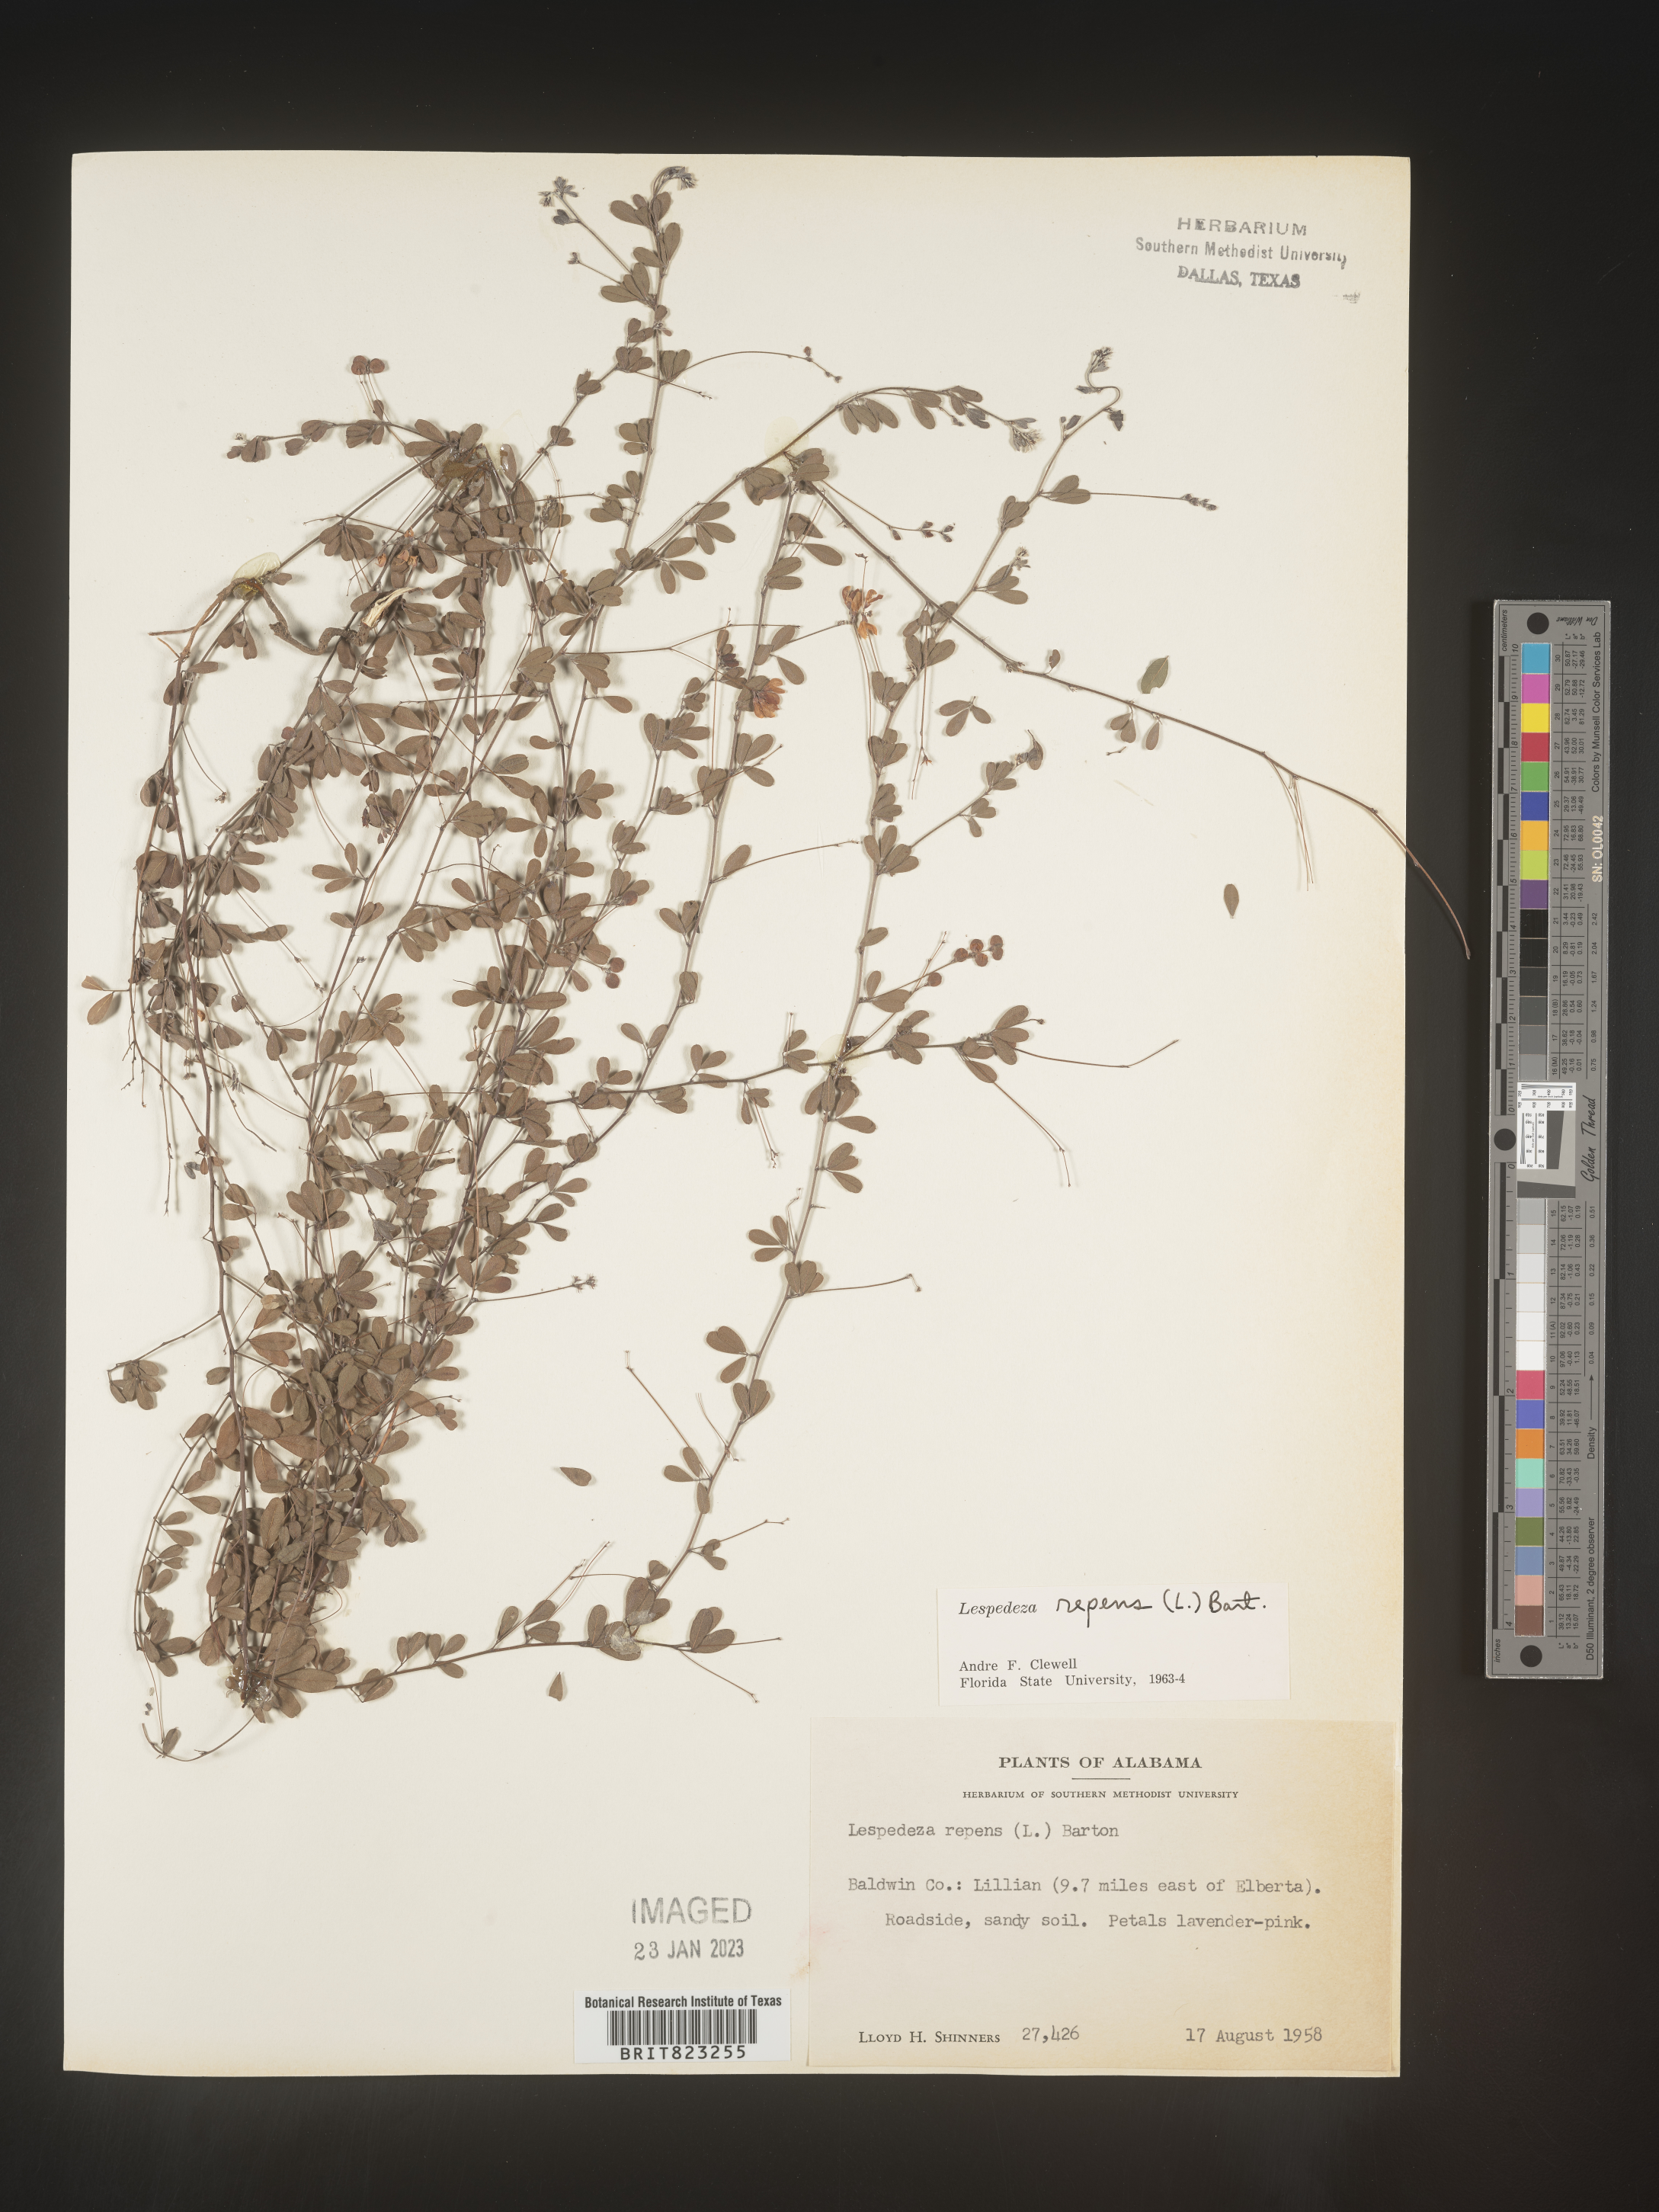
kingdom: Plantae
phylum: Tracheophyta
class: Magnoliopsida
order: Fabales
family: Fabaceae
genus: Lespedeza
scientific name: Lespedeza repens
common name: Creeping bush-clover
